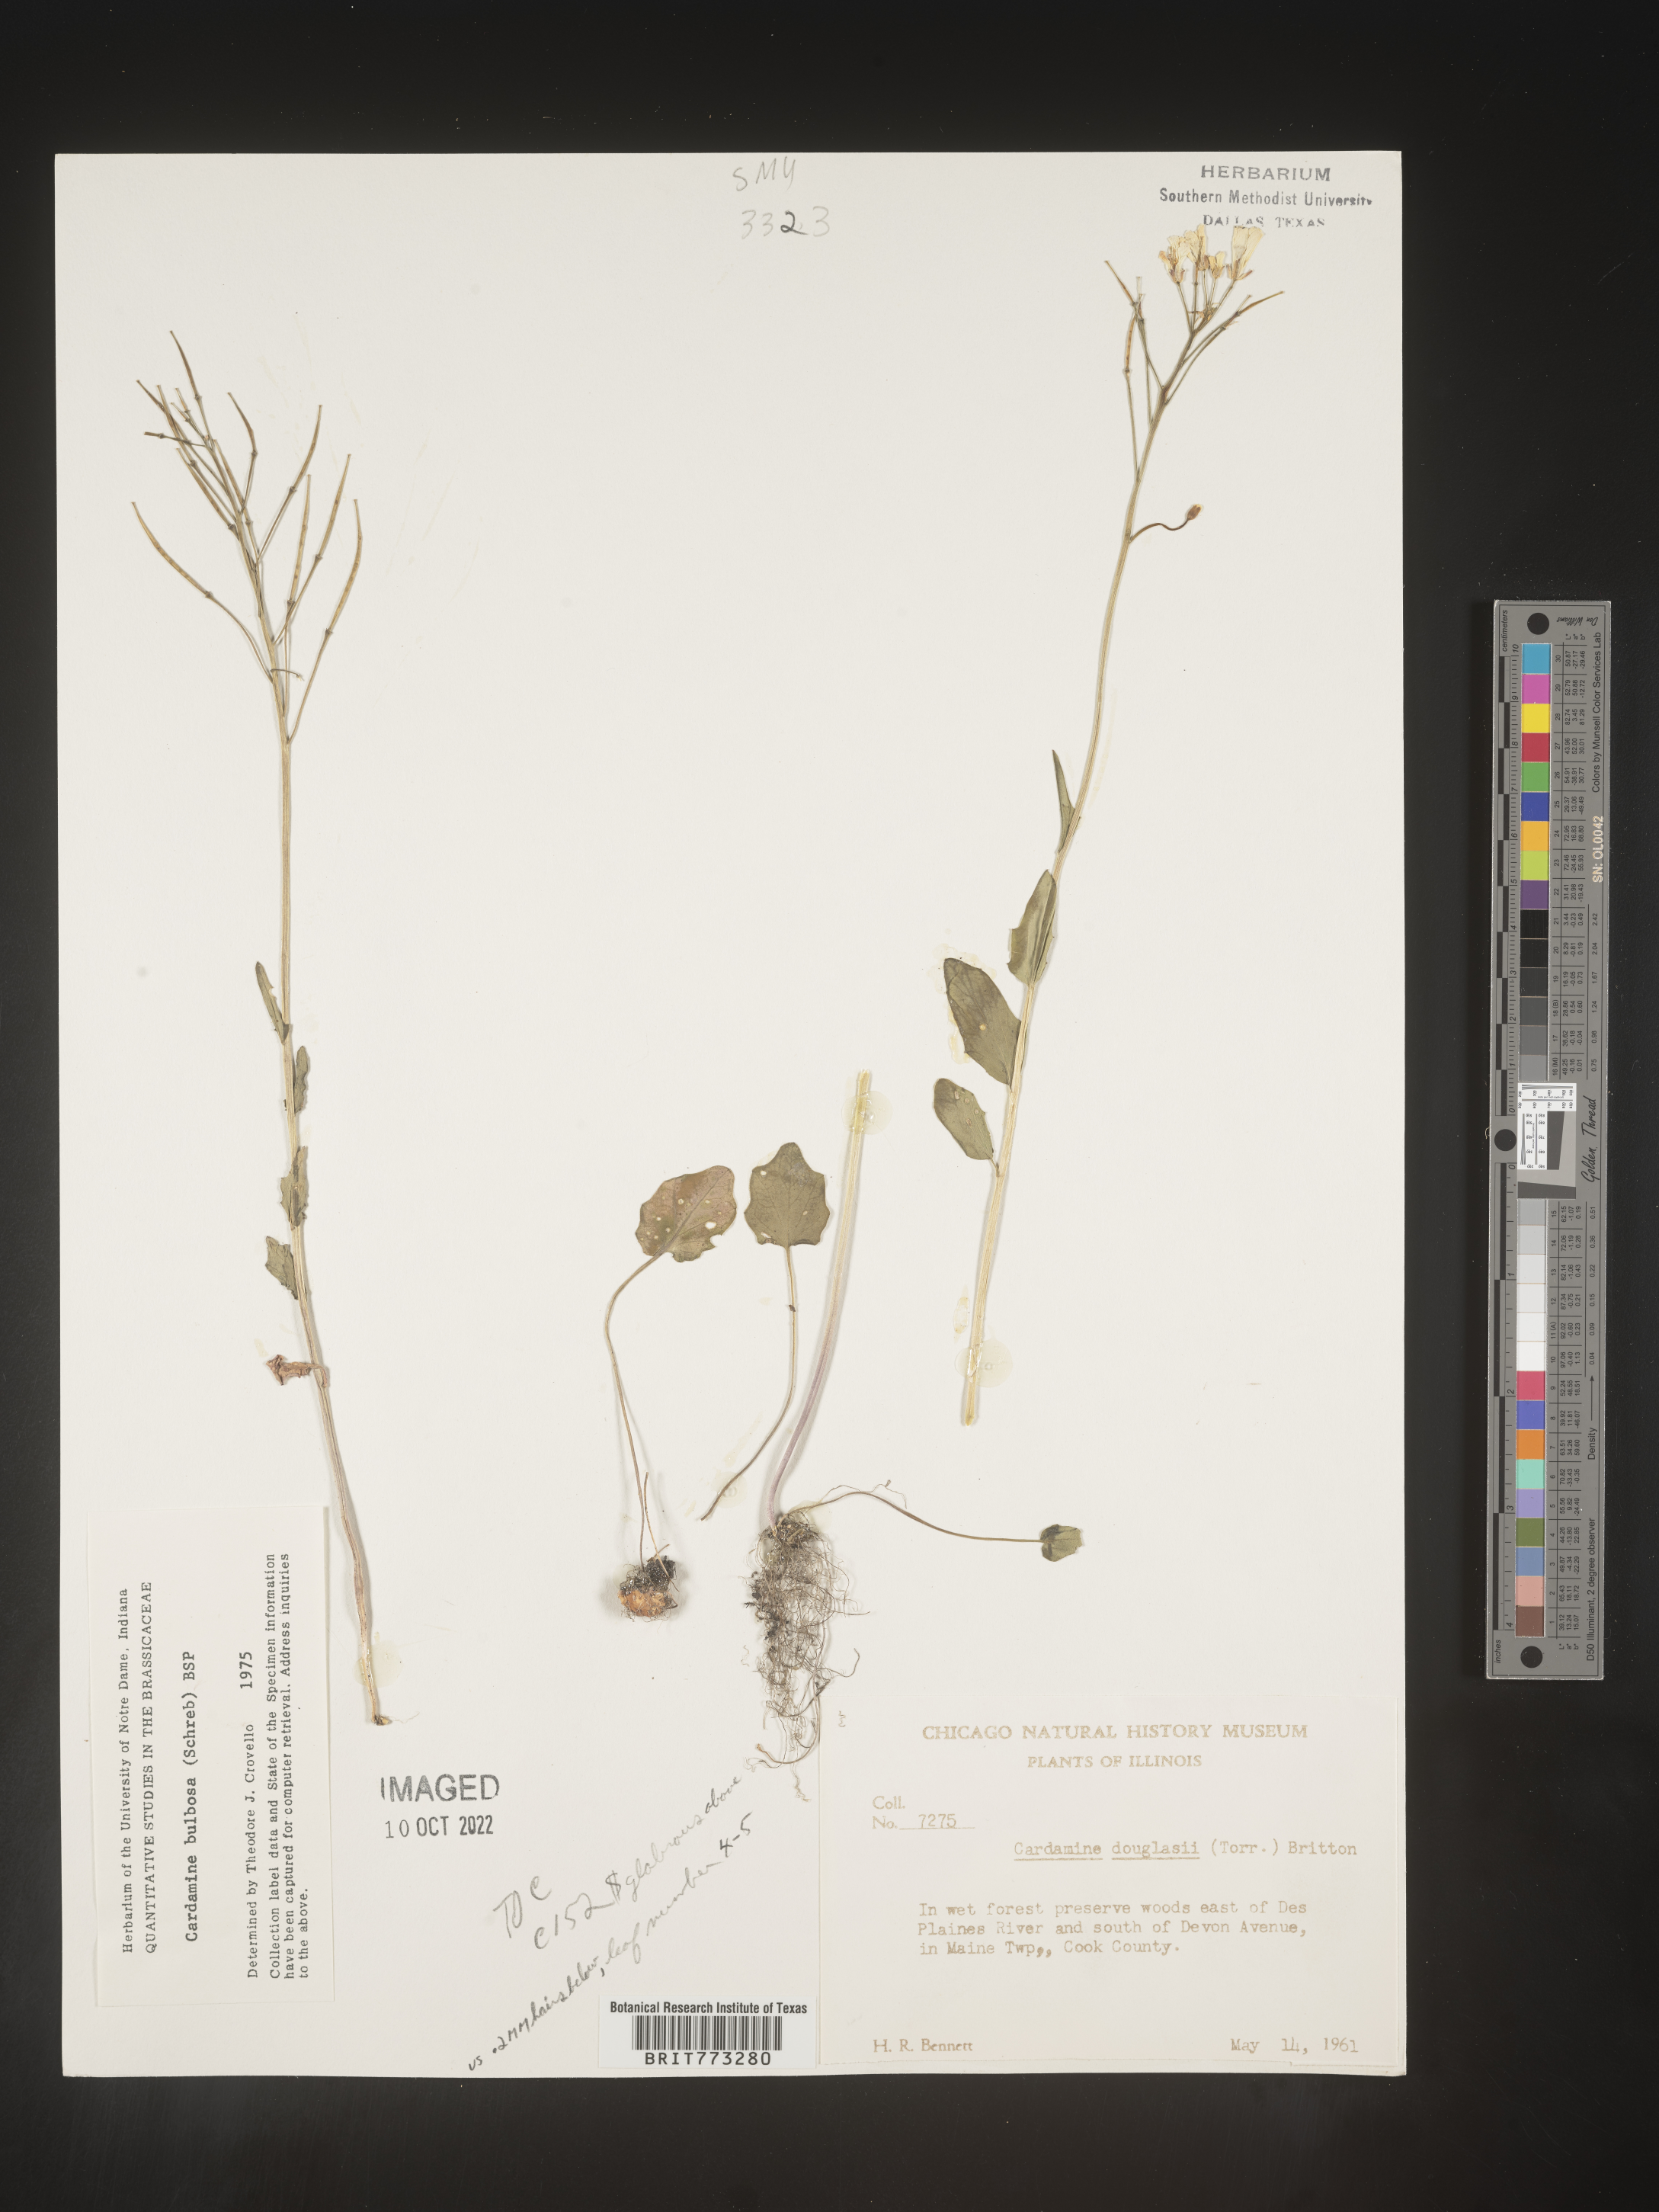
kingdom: Plantae
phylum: Tracheophyta
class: Magnoliopsida
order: Brassicales
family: Brassicaceae
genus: Cardamine
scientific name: Cardamine bulbosa
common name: Spring cress
